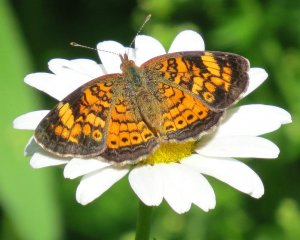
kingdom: Animalia
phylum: Arthropoda
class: Insecta
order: Lepidoptera
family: Nymphalidae
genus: Phyciodes
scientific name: Phyciodes tharos
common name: Pearl Crescent
